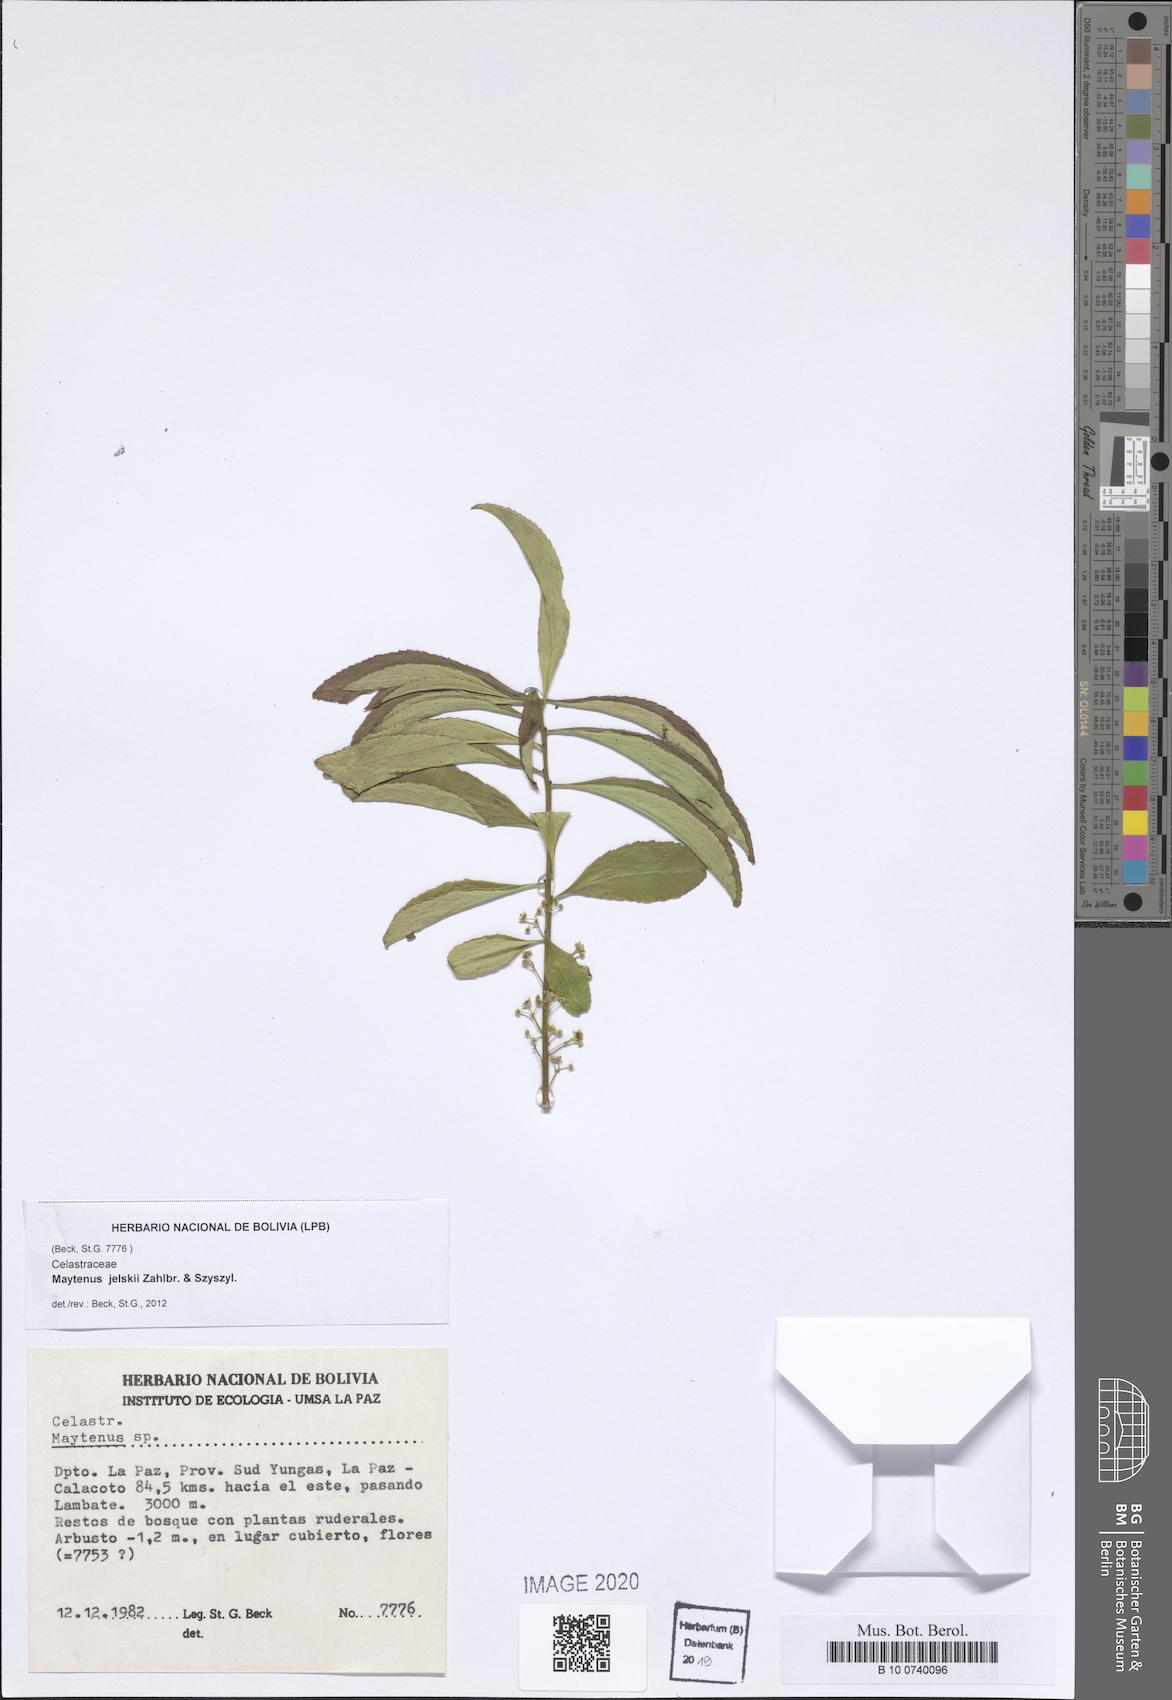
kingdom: Plantae
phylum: Tracheophyta
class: Magnoliopsida
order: Celastrales
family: Celastraceae
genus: Maytenus
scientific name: Maytenus jelskii
